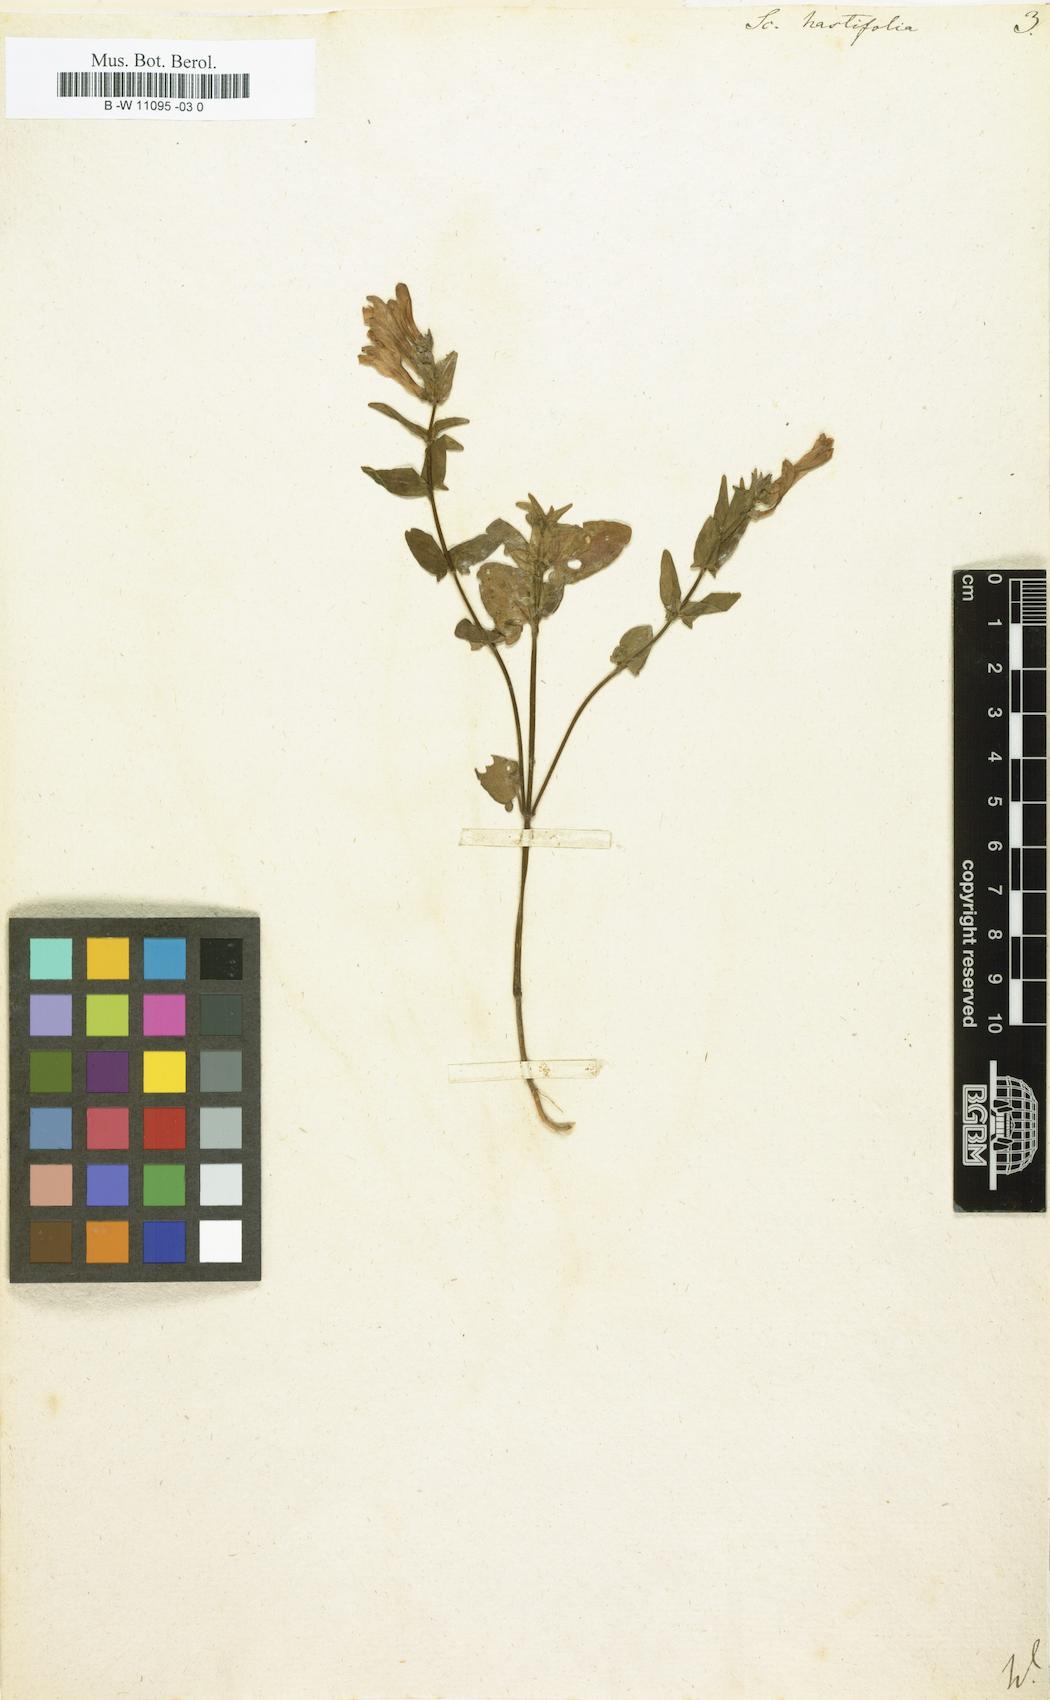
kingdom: Plantae
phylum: Tracheophyta
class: Magnoliopsida
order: Lamiales
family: Lamiaceae
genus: Scutellaria
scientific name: Scutellaria hastifolia
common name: Norfolk skullcap
